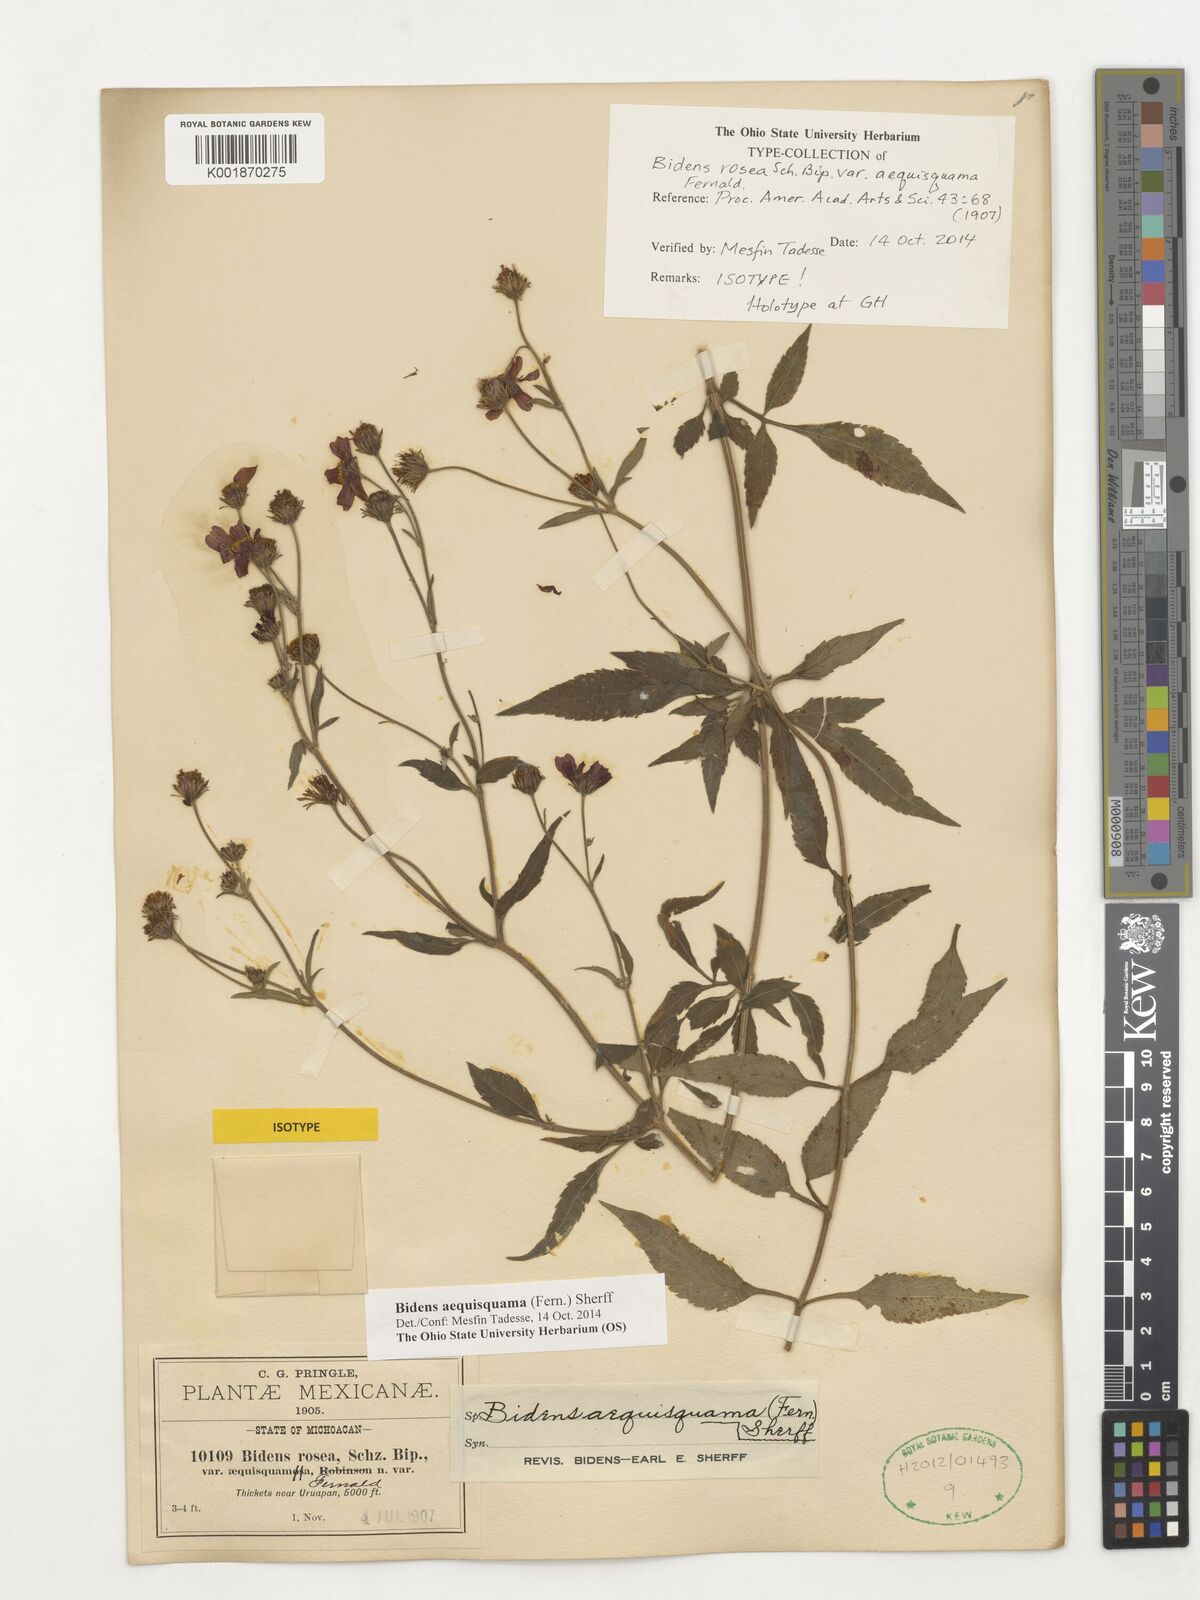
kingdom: Plantae
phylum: Tracheophyta
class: Magnoliopsida
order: Asterales
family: Asteraceae
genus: Bidens
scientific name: Bidens aequisquama
